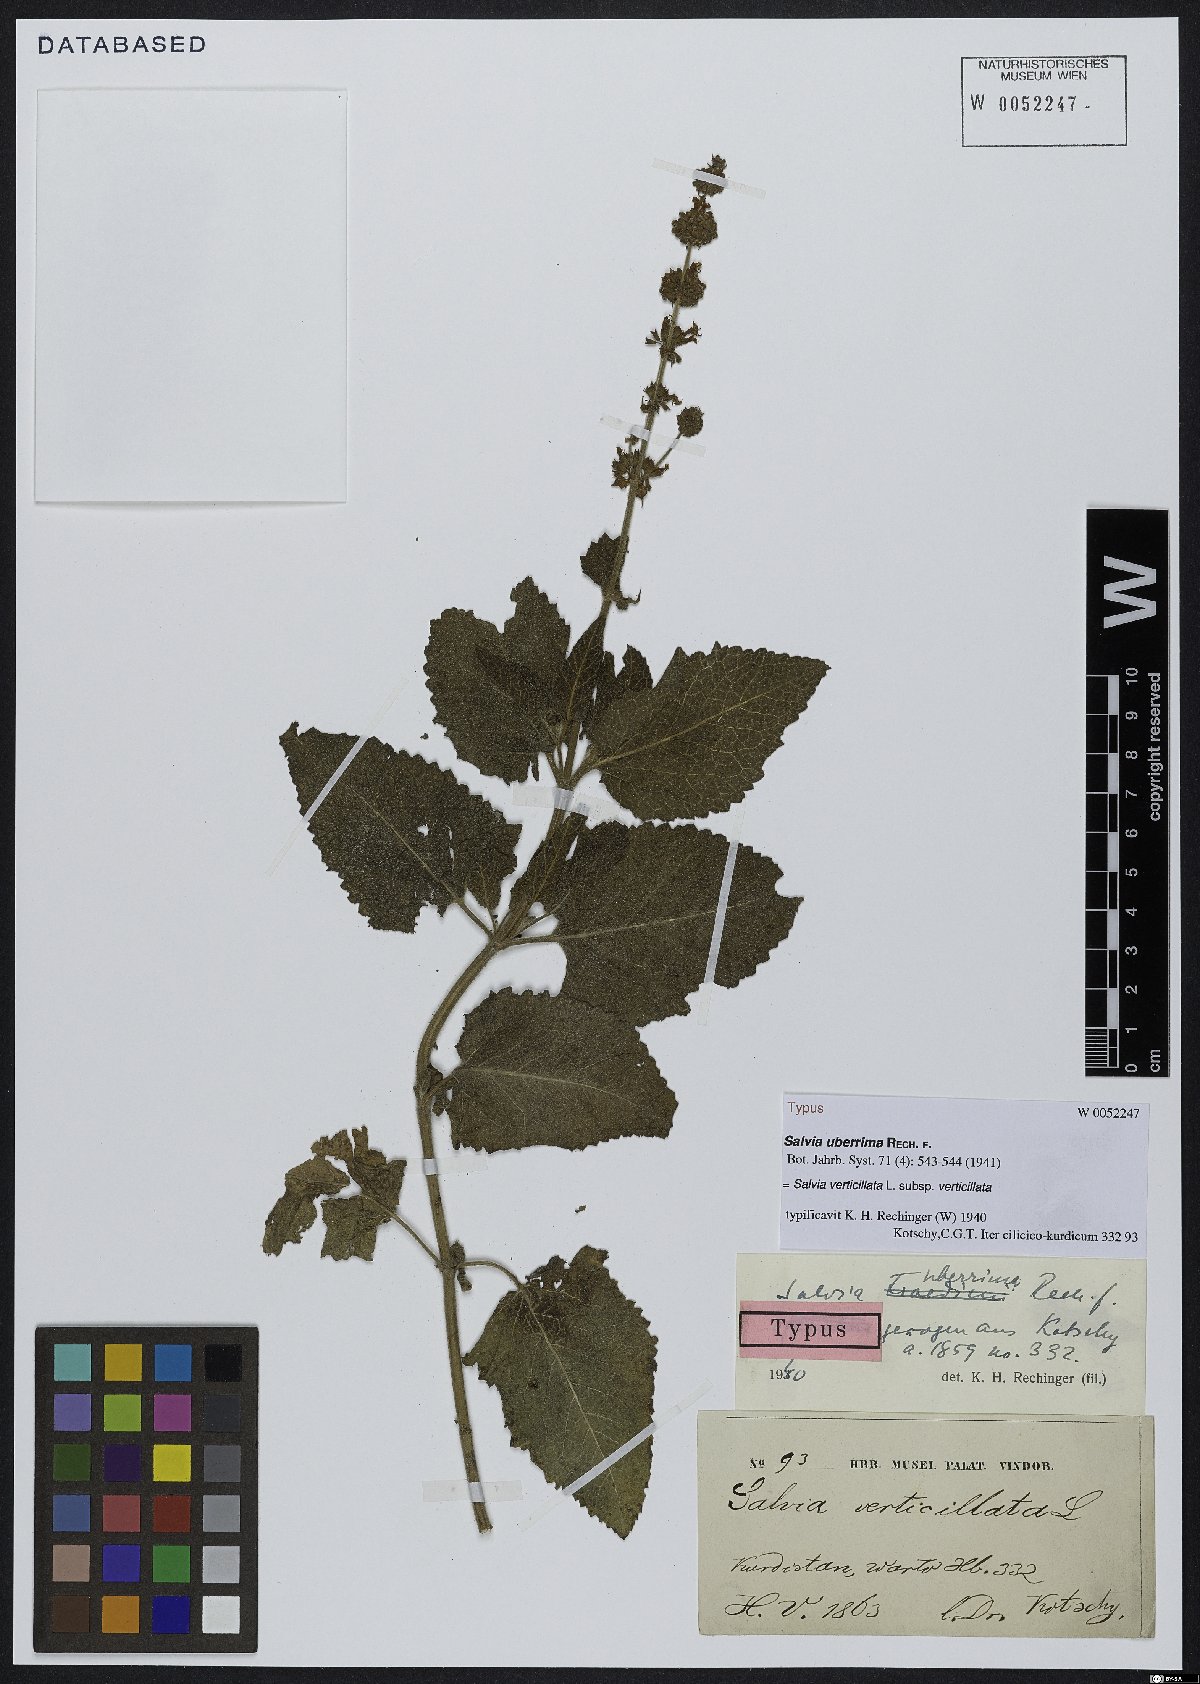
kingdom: Plantae
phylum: Tracheophyta
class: Magnoliopsida
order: Lamiales
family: Lamiaceae
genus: Salvia
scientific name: Salvia verticillata
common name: Whorled clary
